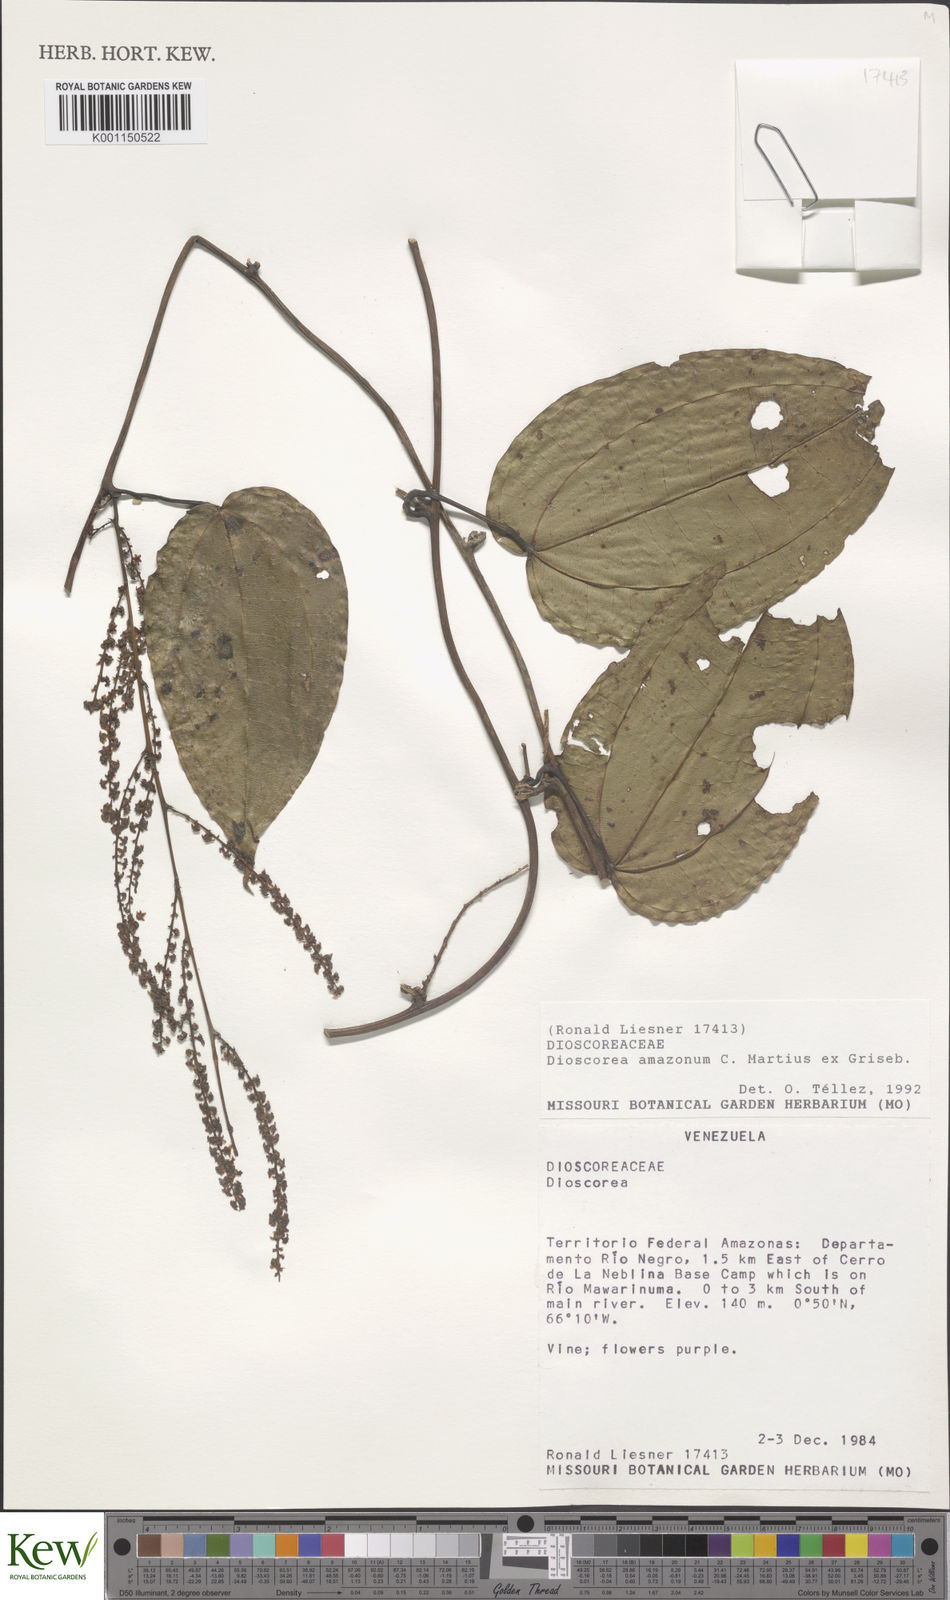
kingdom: Plantae
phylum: Tracheophyta
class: Liliopsida
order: Dioscoreales
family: Dioscoreaceae
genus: Dioscorea
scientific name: Dioscorea amazonum
